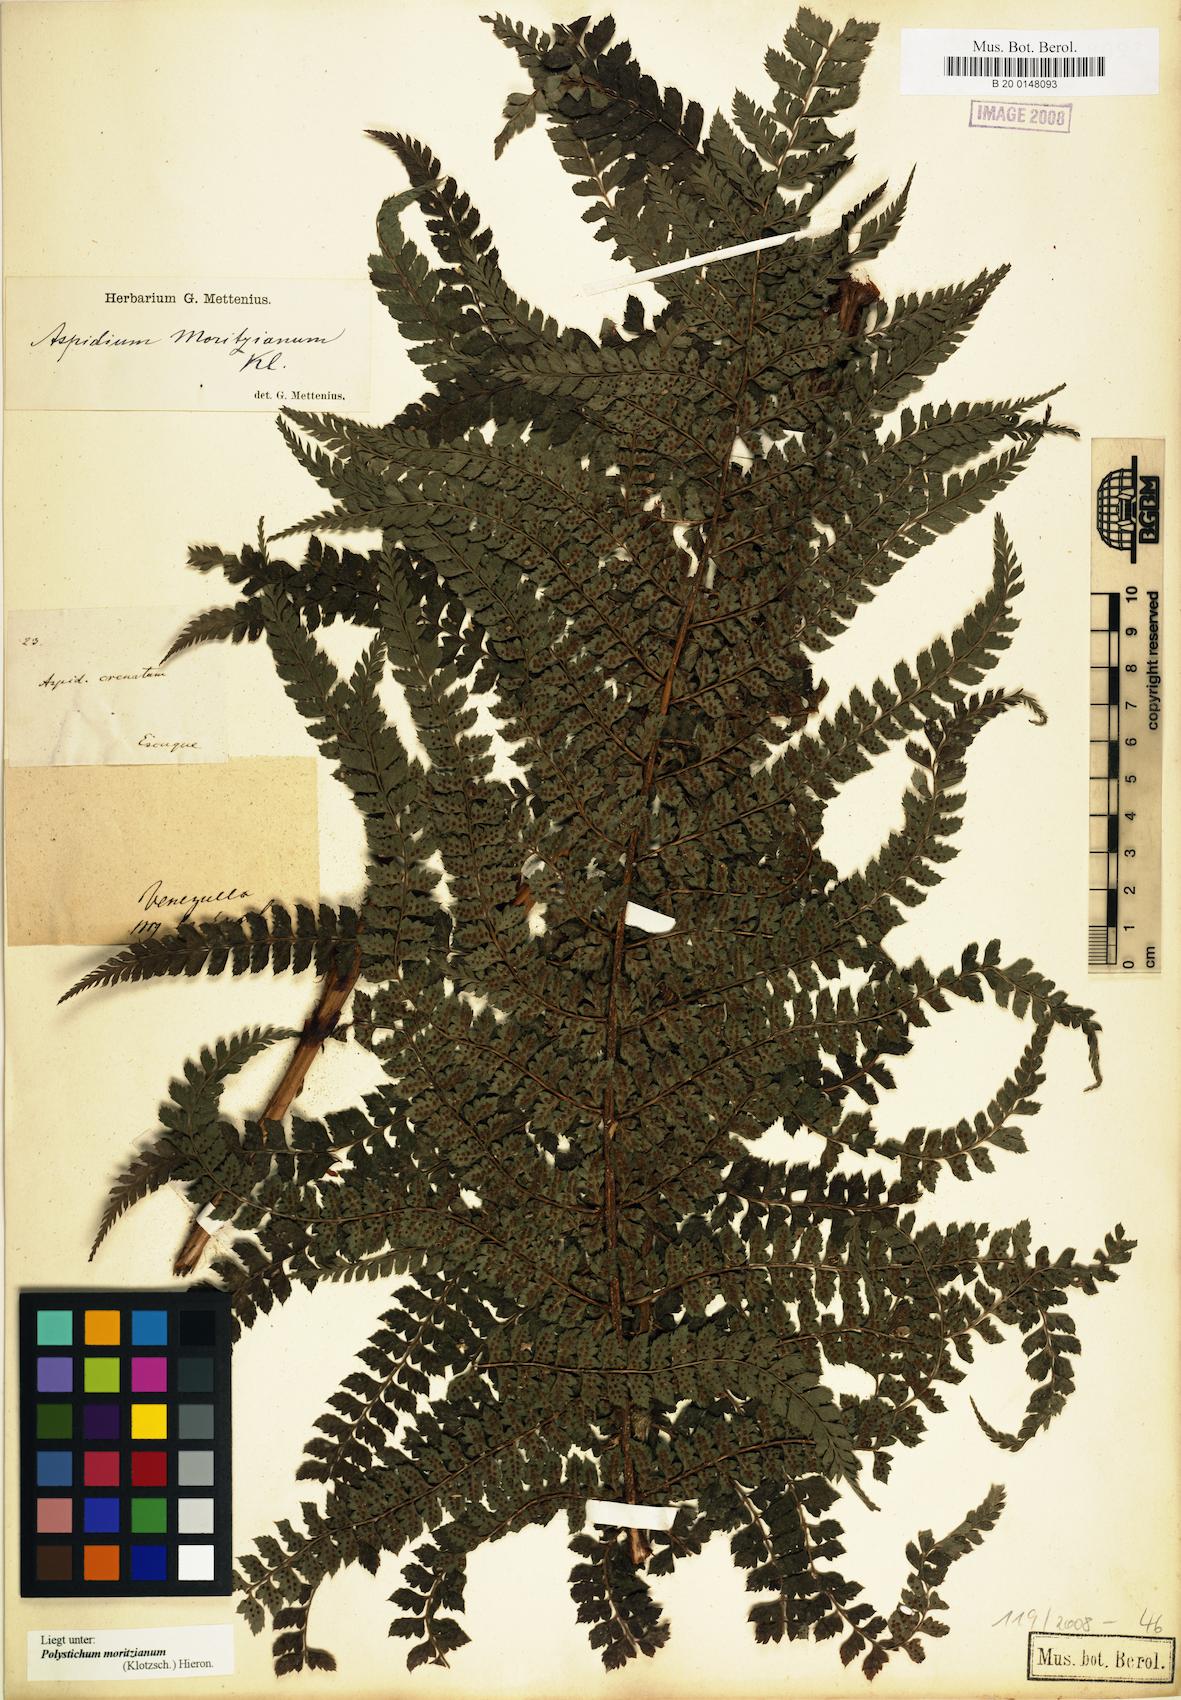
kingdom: Plantae
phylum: Tracheophyta
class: Polypodiopsida
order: Polypodiales
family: Dryopteridaceae
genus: Polystichum
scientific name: Polystichum muricatum
